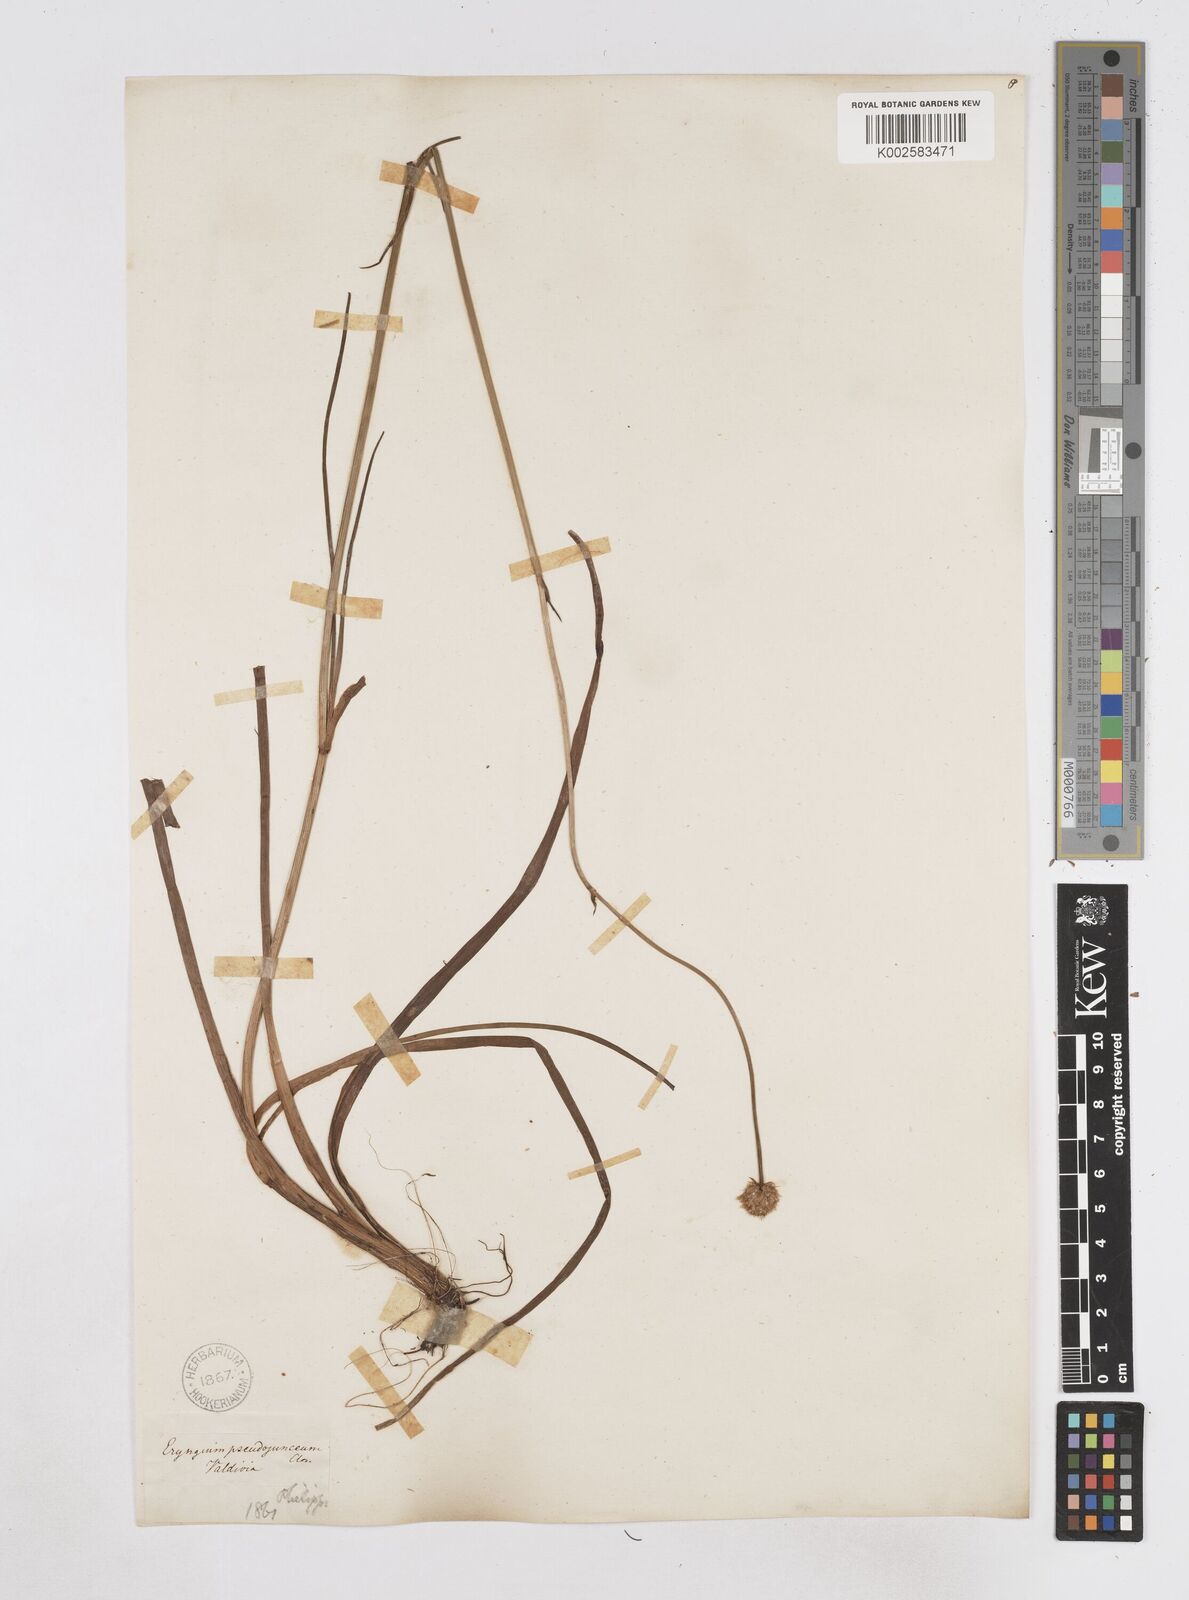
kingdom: Plantae
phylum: Tracheophyta
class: Magnoliopsida
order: Apiales
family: Apiaceae
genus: Eryngium
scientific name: Eryngium pseudojunceum
